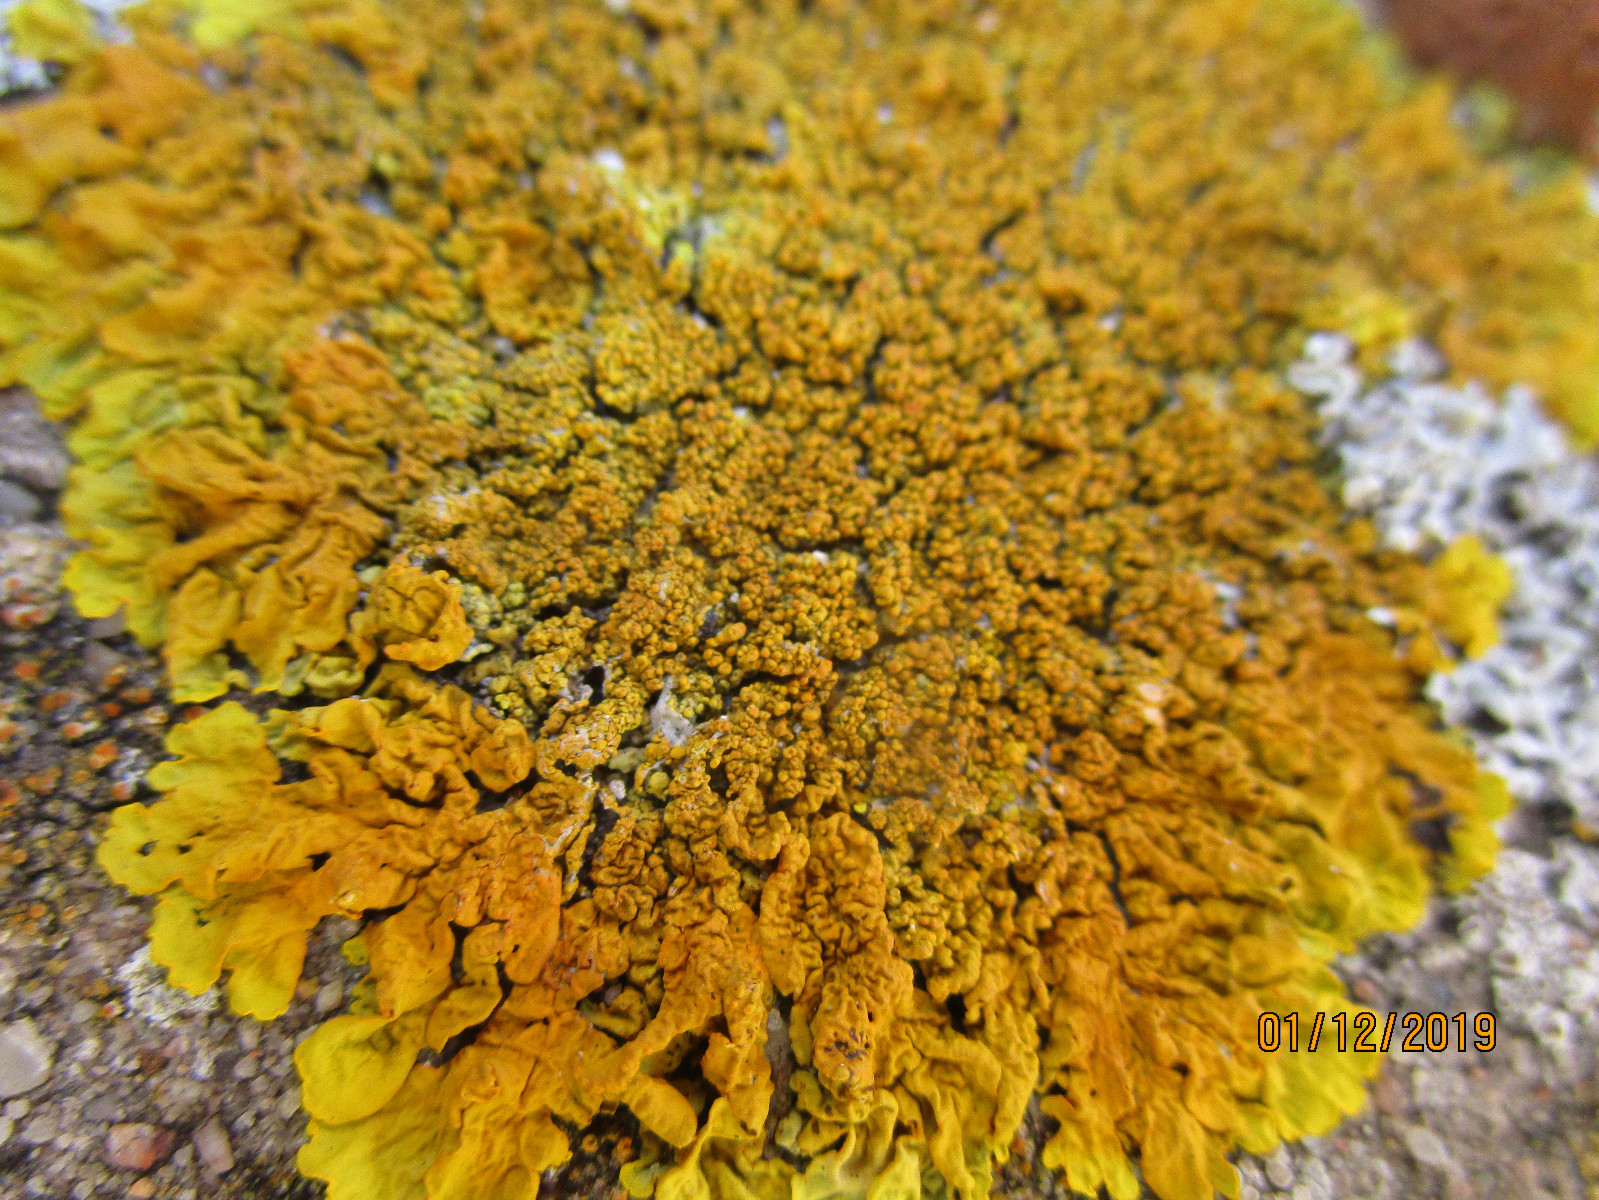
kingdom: Fungi
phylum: Ascomycota
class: Lecanoromycetes
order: Teloschistales
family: Teloschistaceae
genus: Xanthoria
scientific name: Xanthoria calcicola
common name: vortet væggelav
